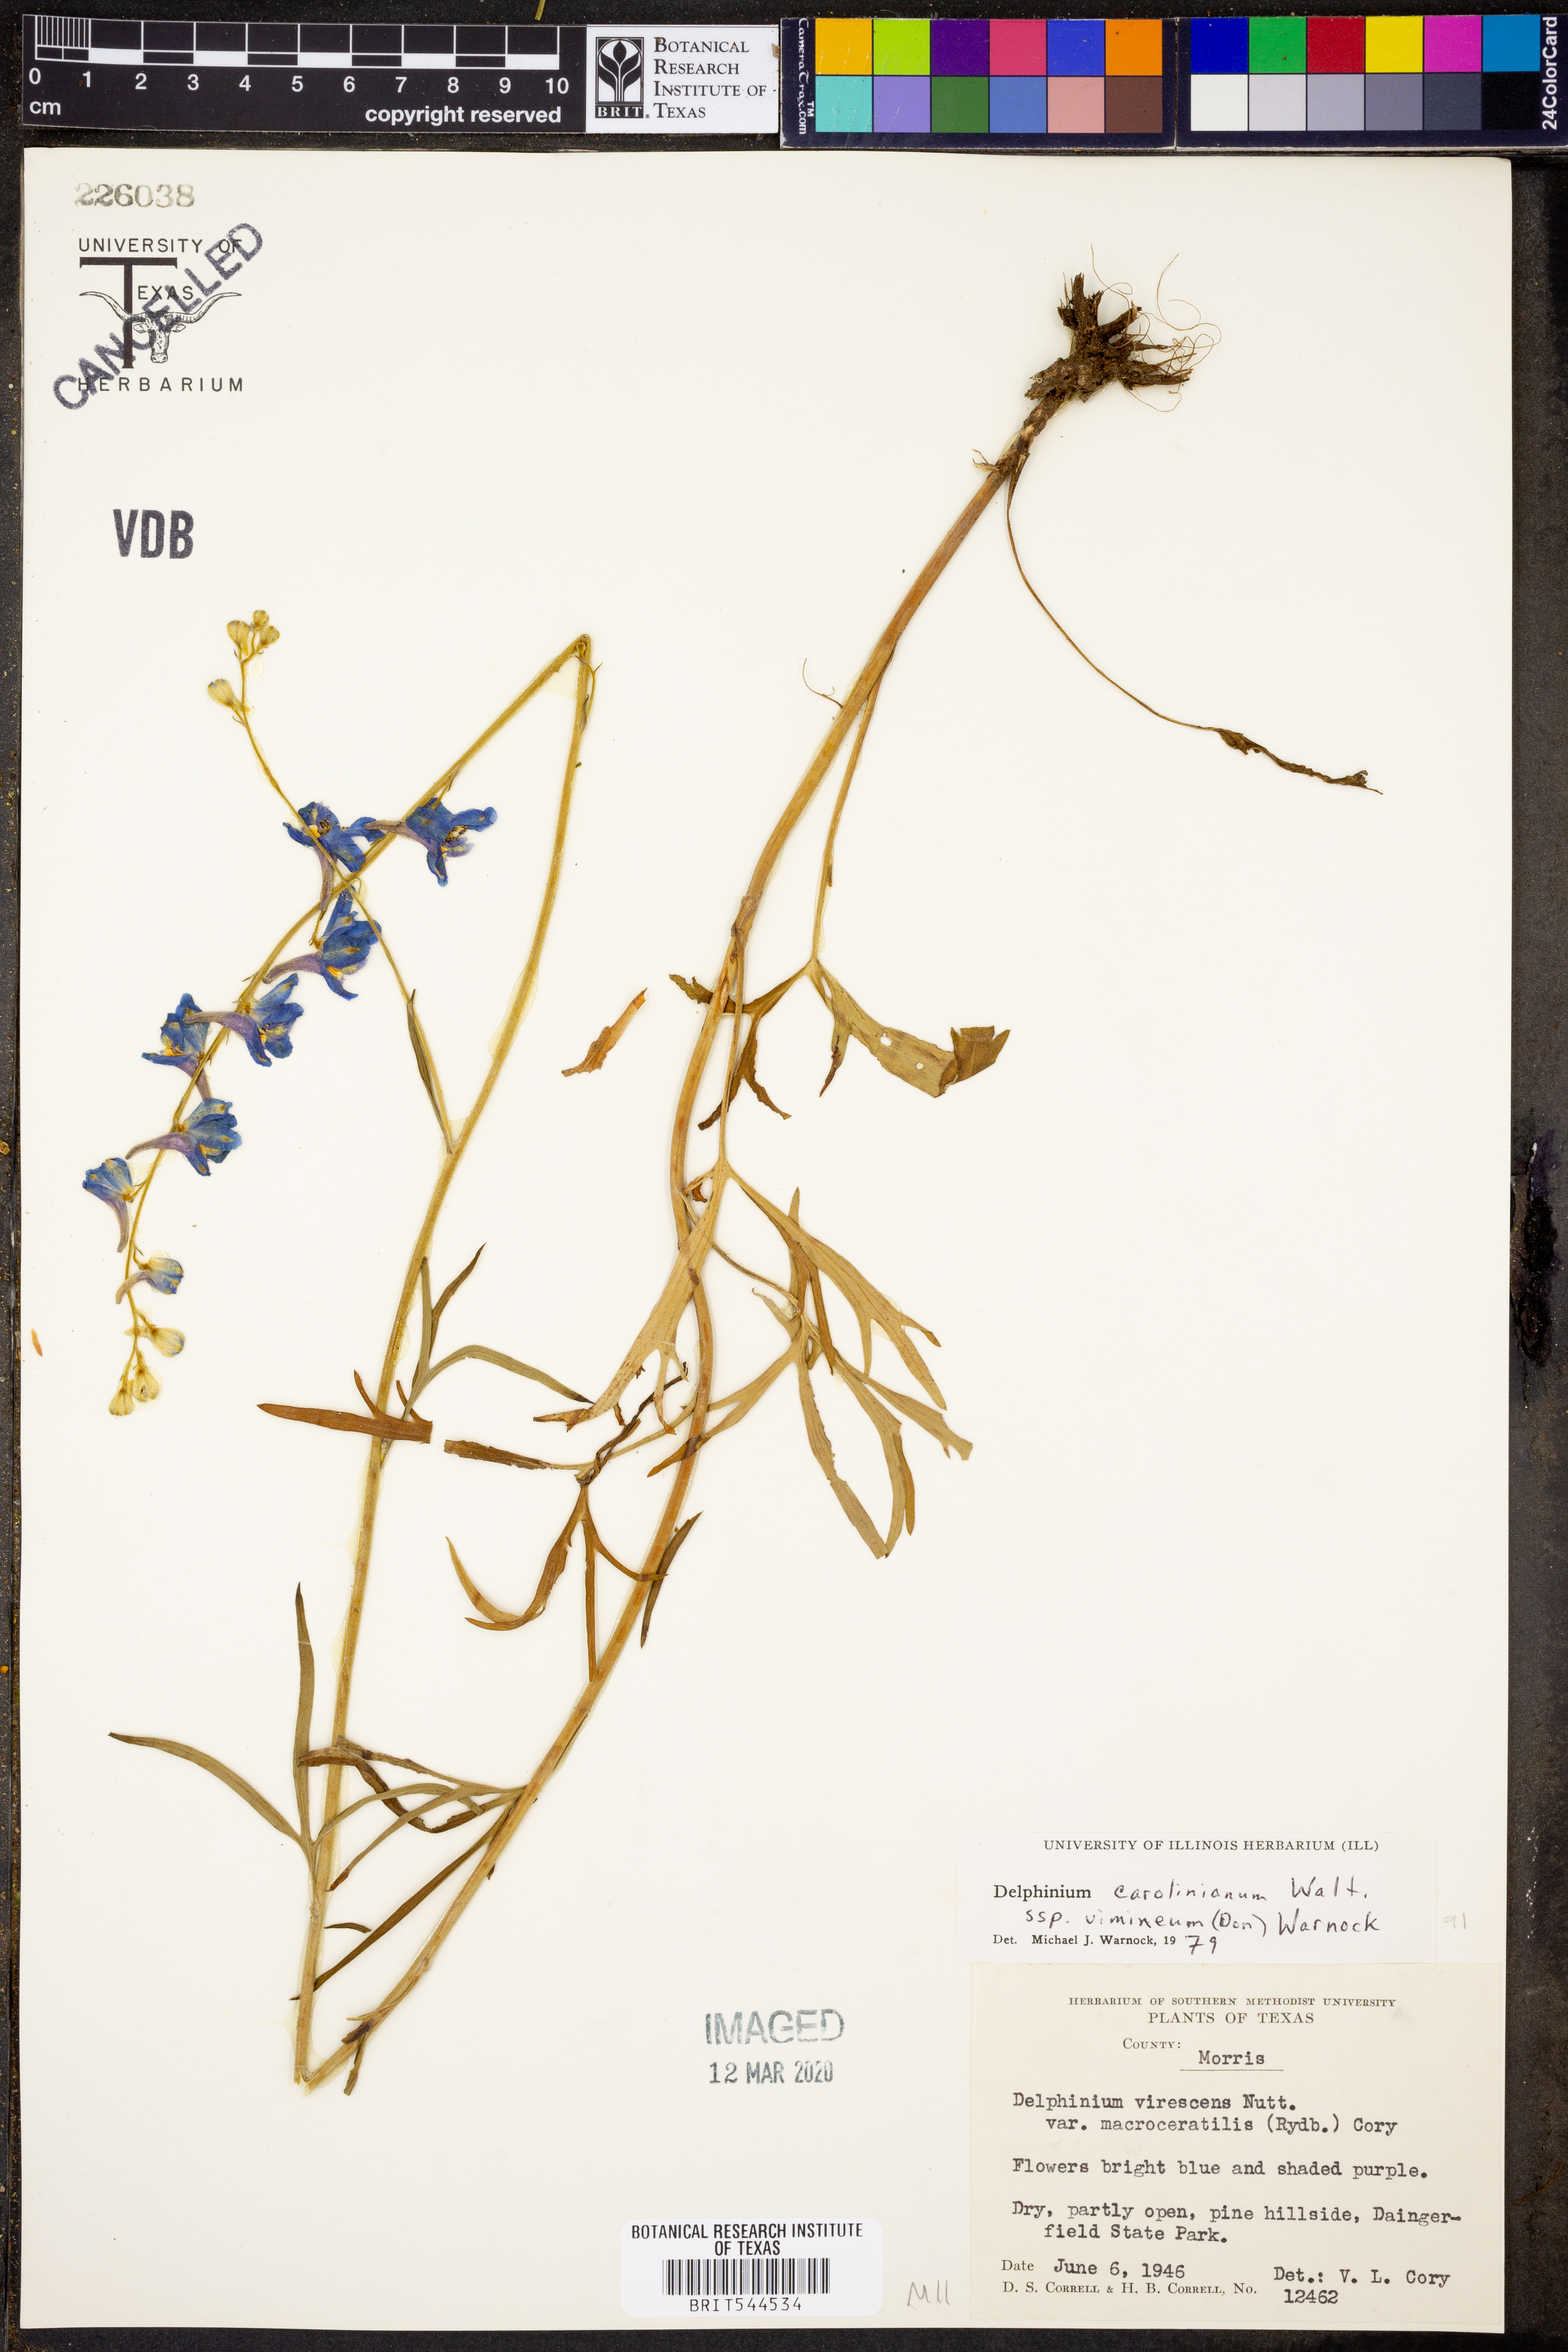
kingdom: Plantae
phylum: Tracheophyta
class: Magnoliopsida
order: Ranunculales
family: Ranunculaceae
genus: Delphinium
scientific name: Delphinium carolinianum
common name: Carolina larkspur
